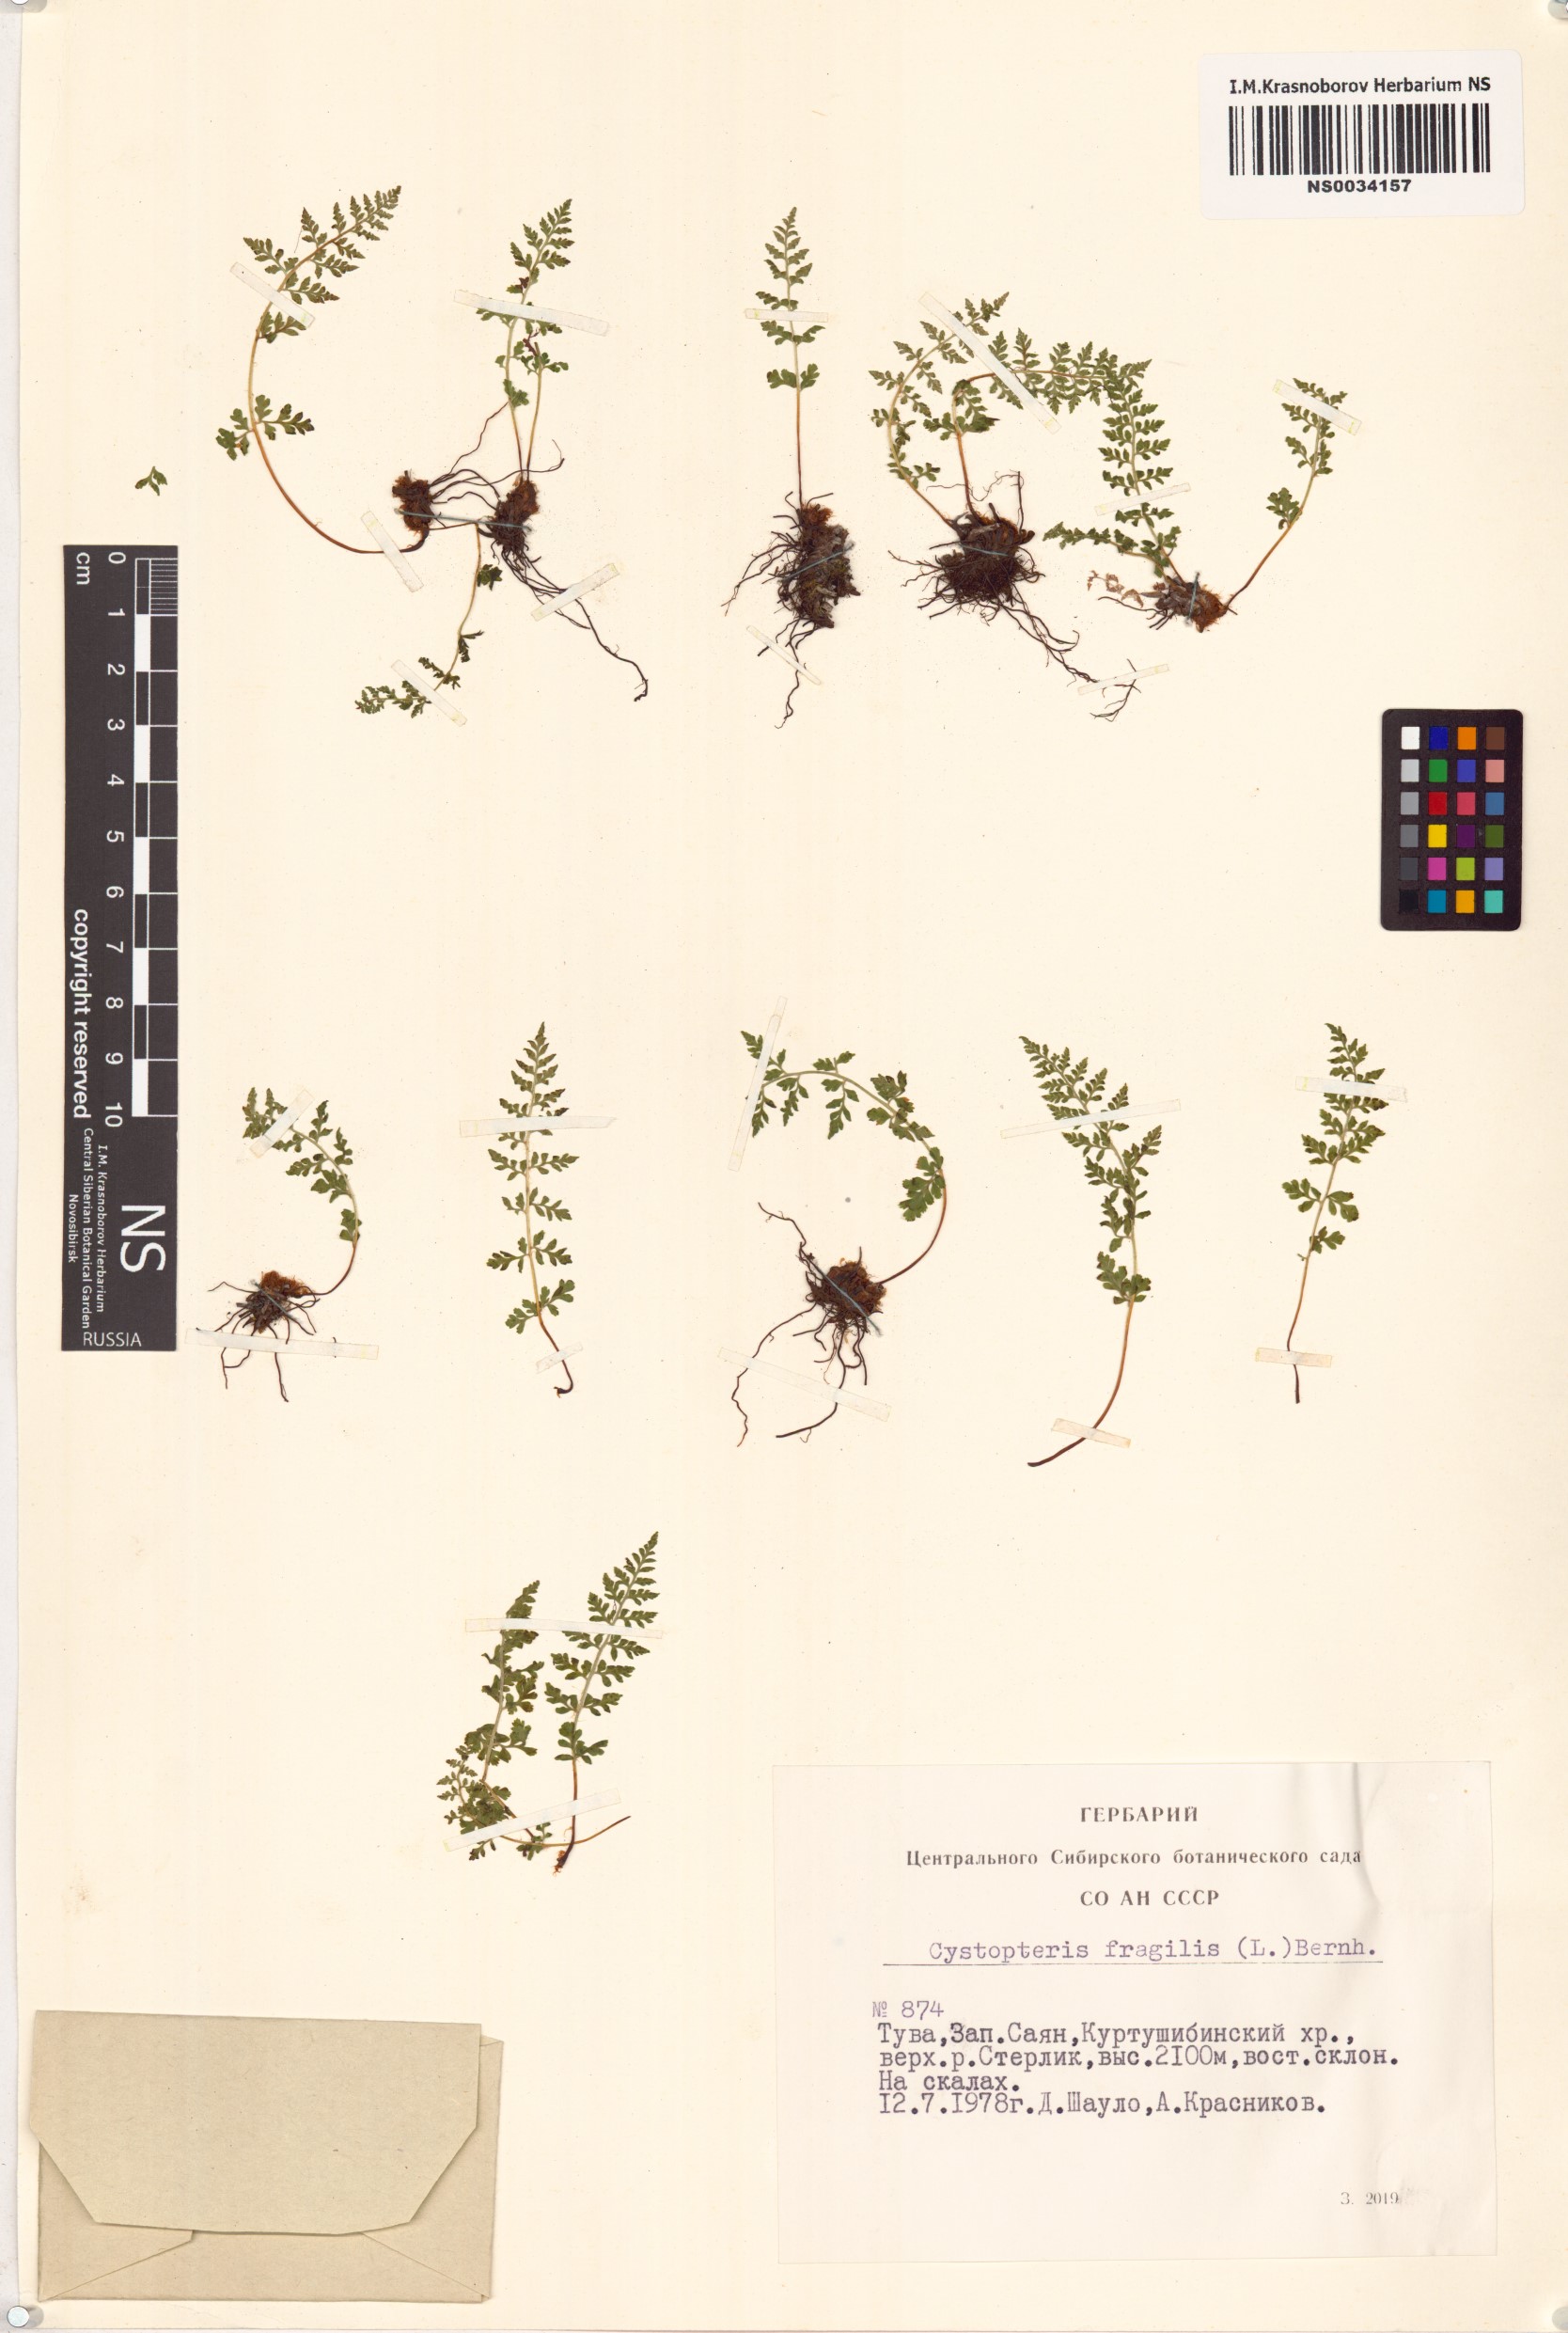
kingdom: Plantae
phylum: Tracheophyta
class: Polypodiopsida
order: Polypodiales
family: Cystopteridaceae
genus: Cystopteris
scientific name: Cystopteris fragilis
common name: Brittle bladder fern
